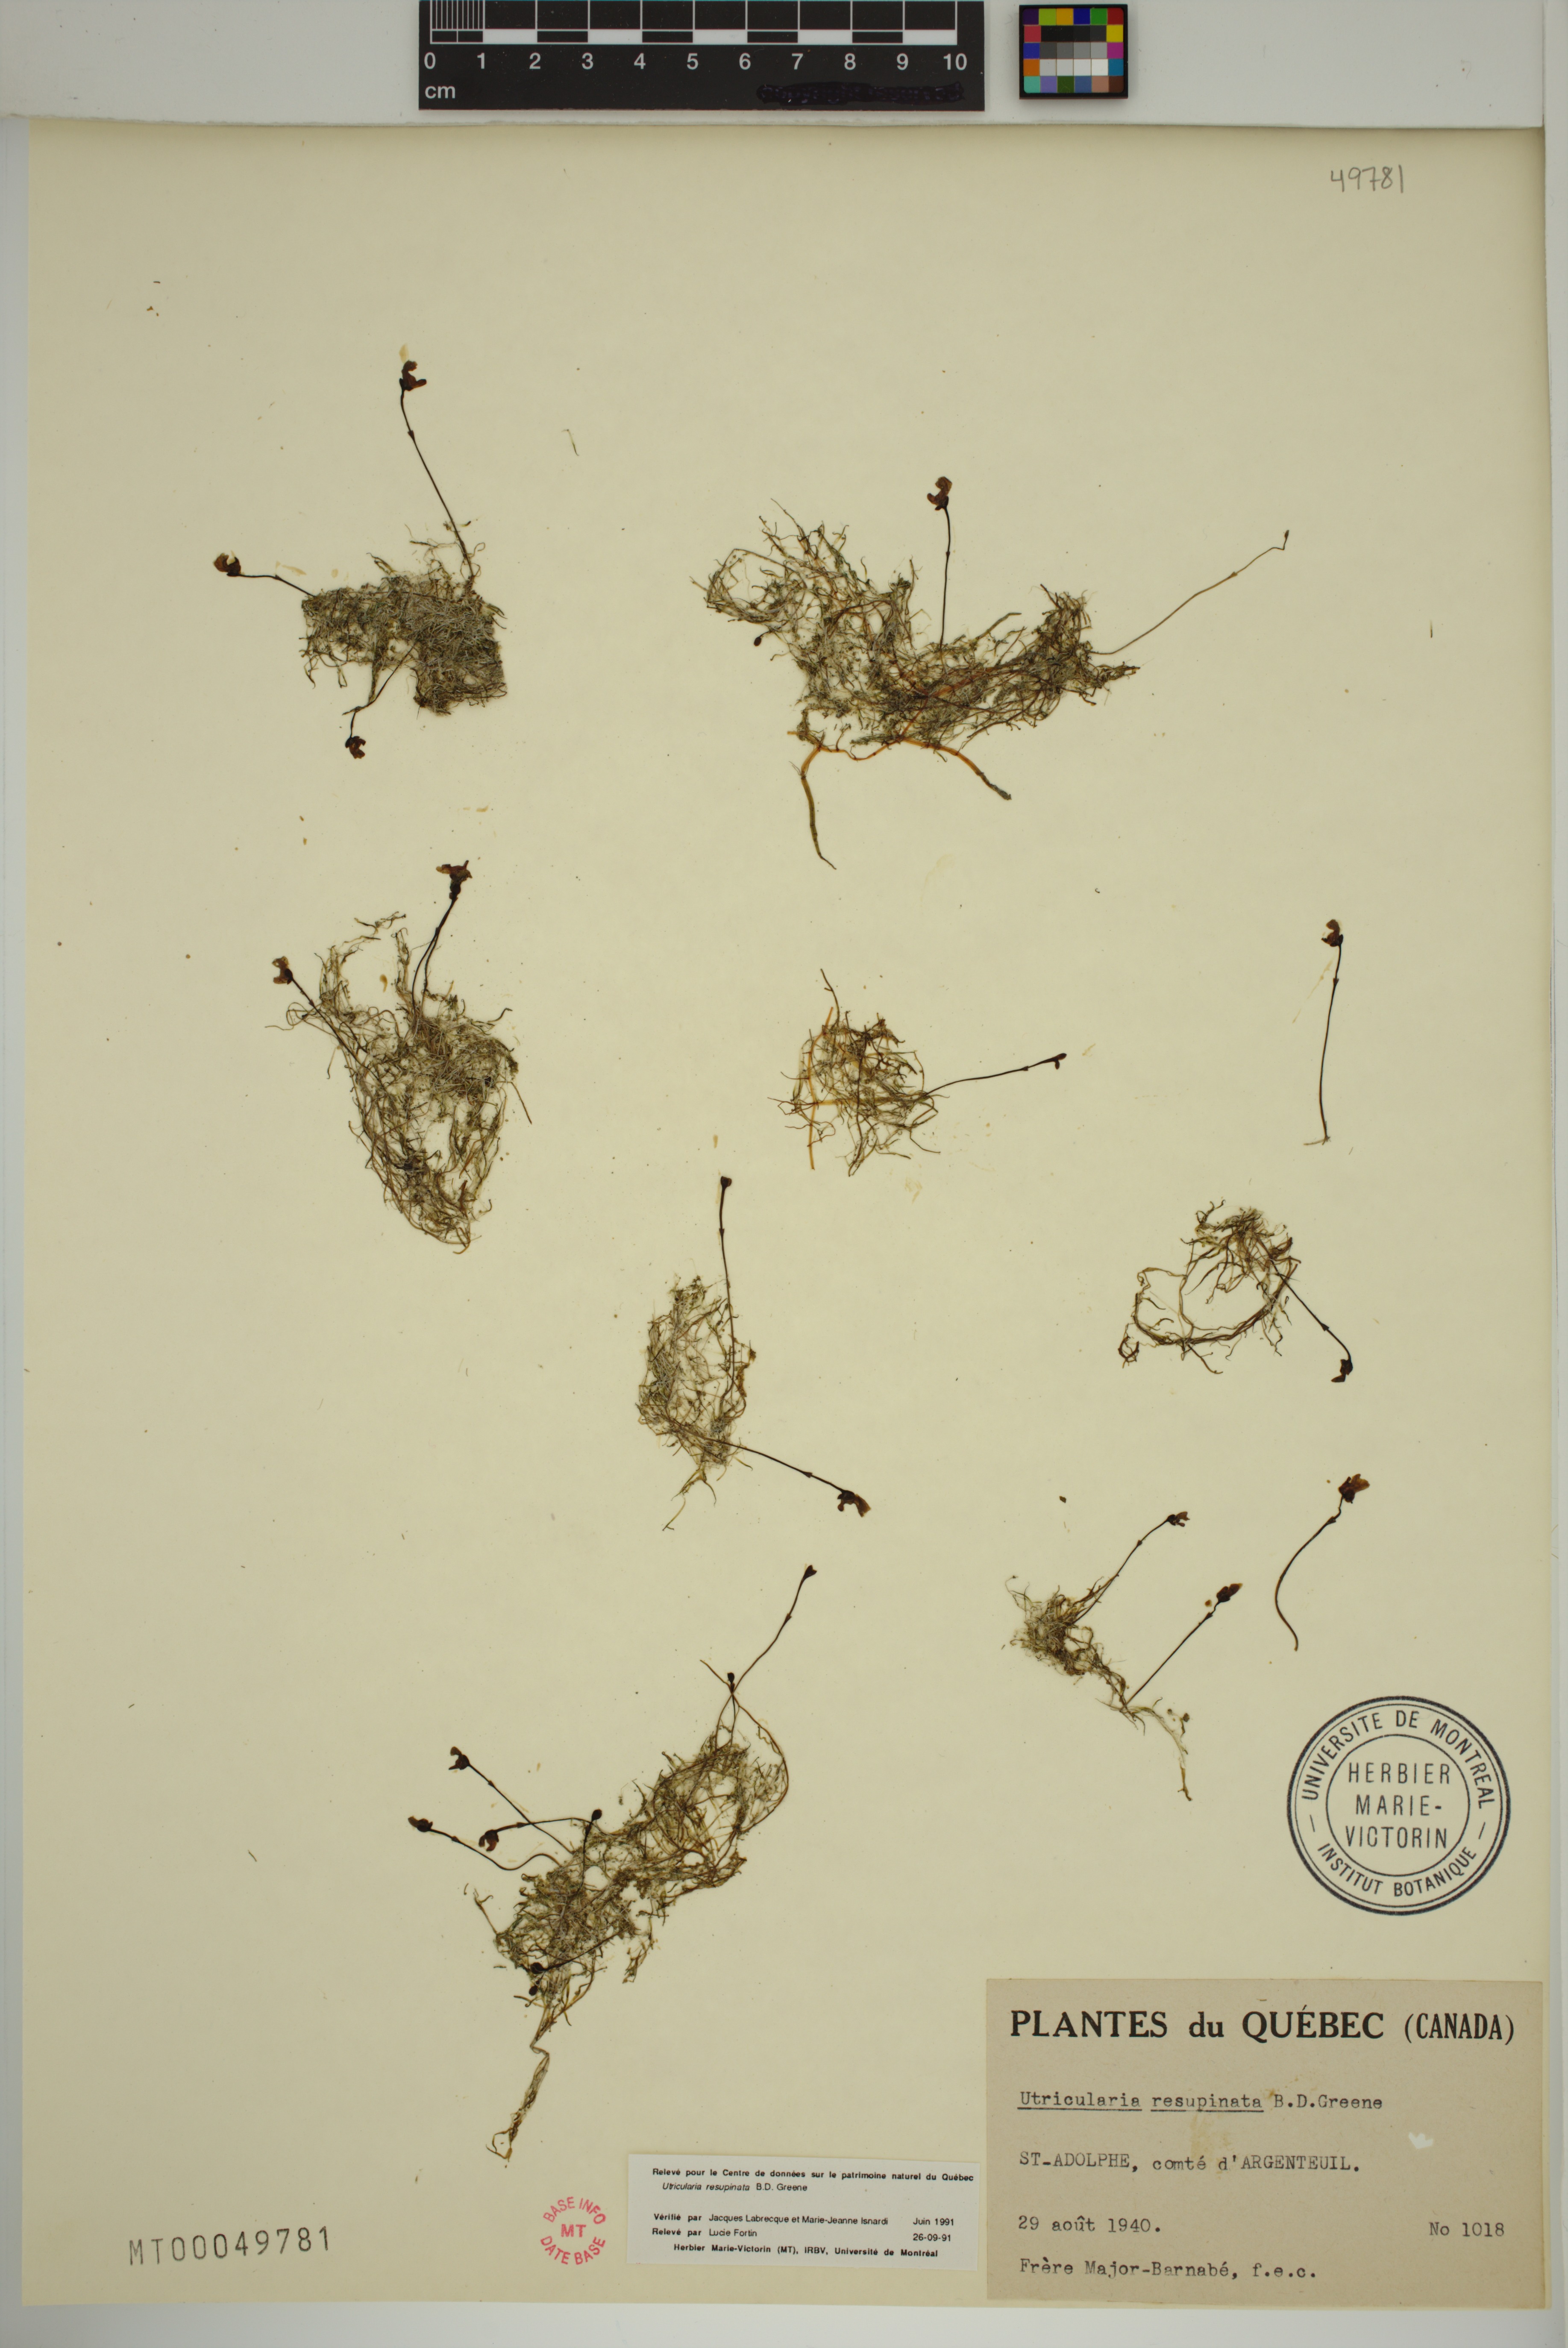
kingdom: Plantae
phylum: Tracheophyta
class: Magnoliopsida
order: Lamiales
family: Lentibulariaceae
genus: Utricularia
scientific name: Utricularia resupinata
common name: Northeastern bladderwort
